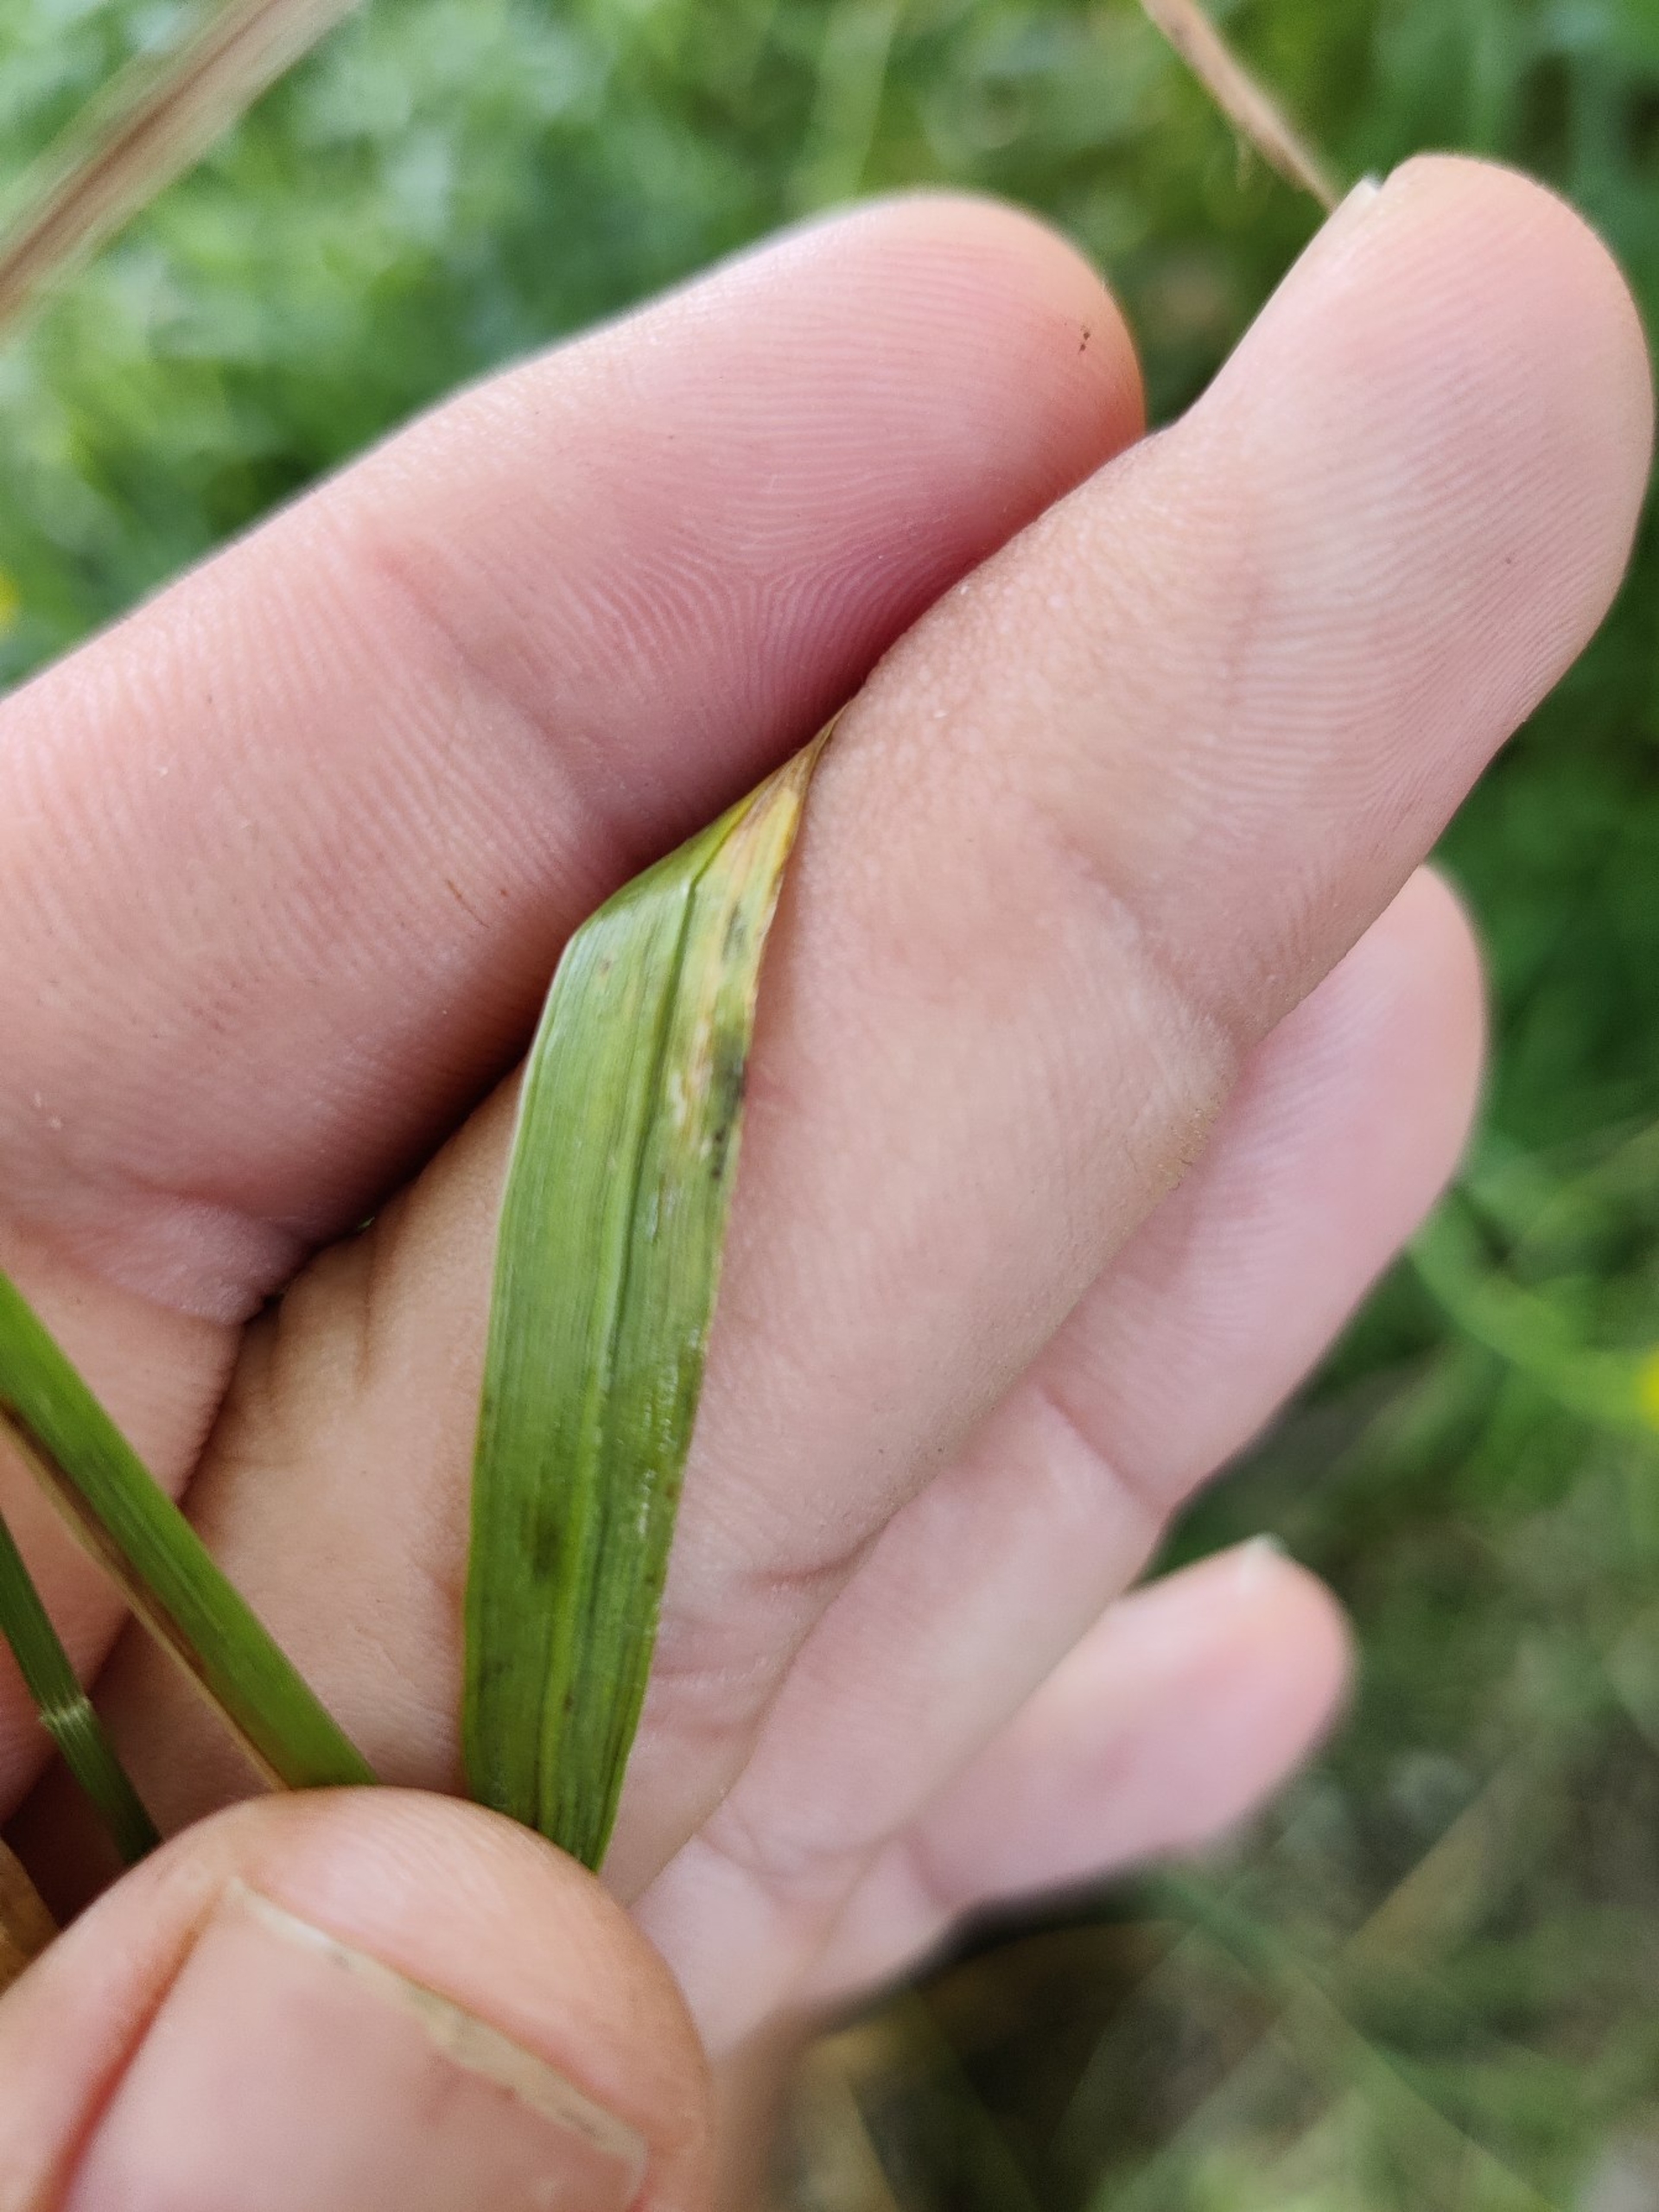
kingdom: Plantae
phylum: Tracheophyta
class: Liliopsida
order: Poales
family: Poaceae
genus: Elymus
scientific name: Elymus repens
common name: Almindelig kvik
